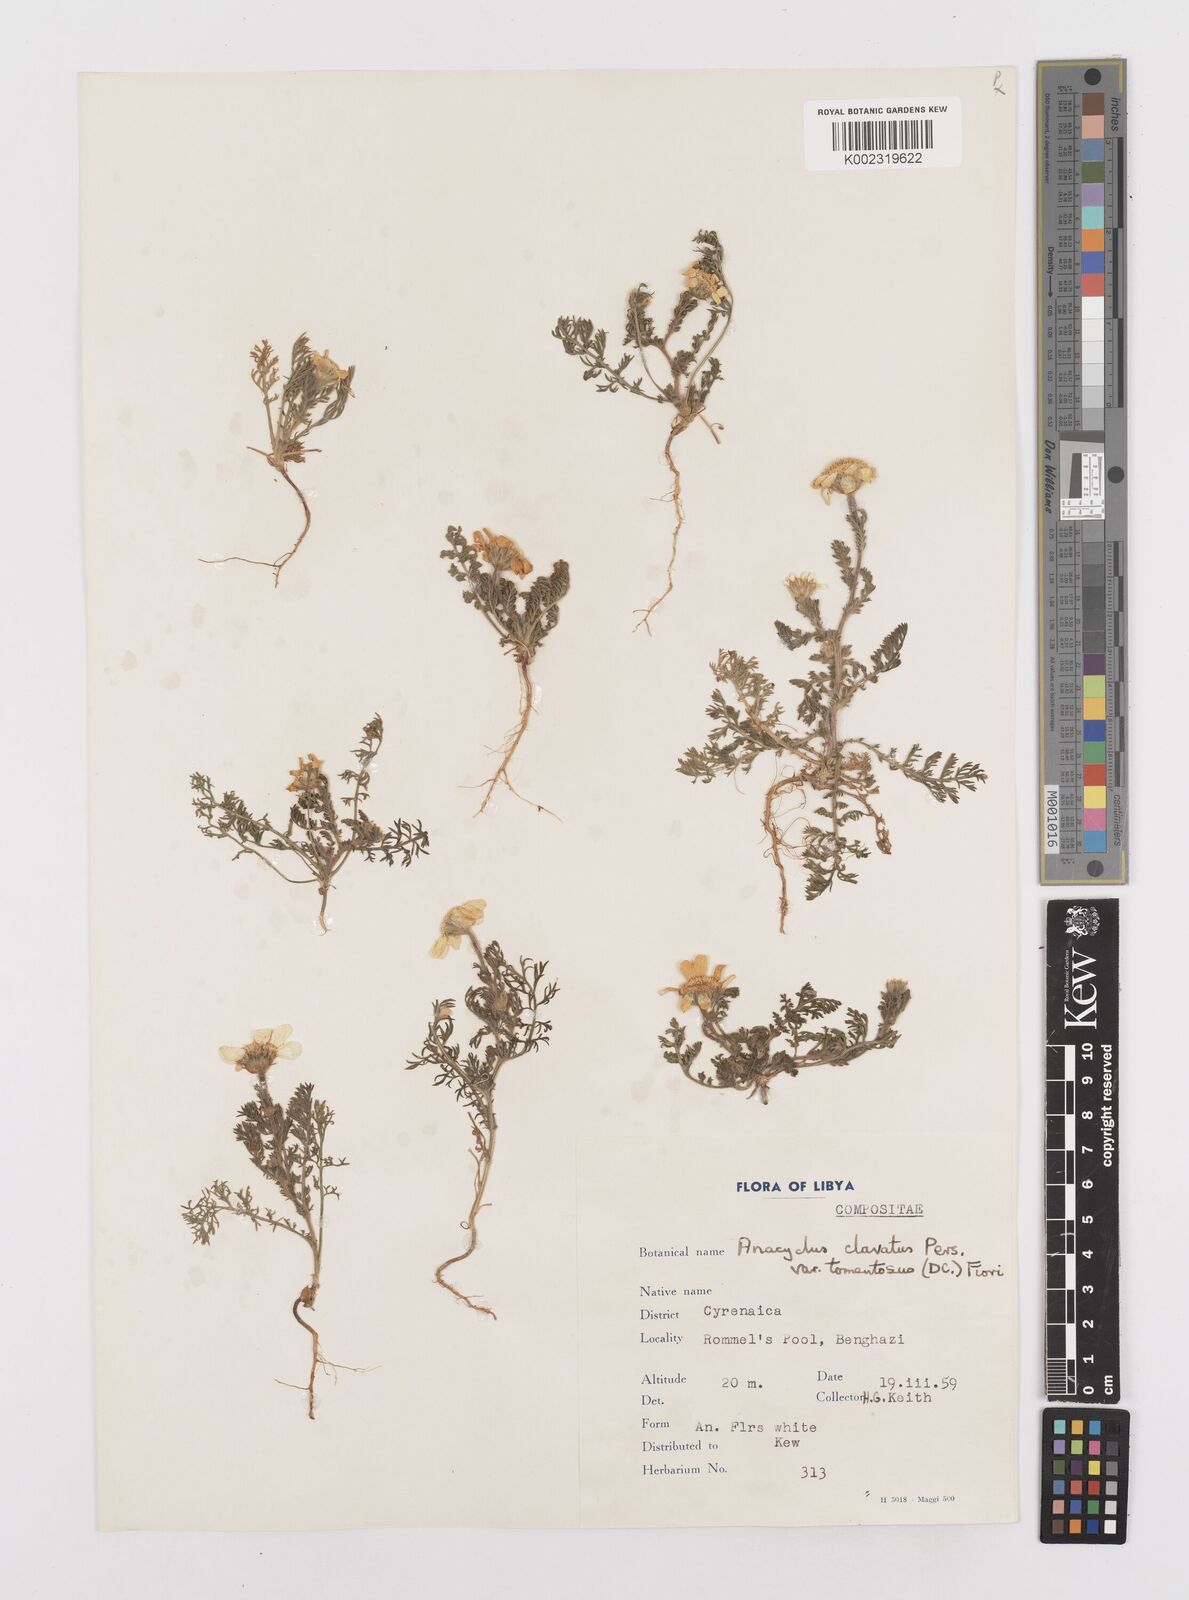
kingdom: Plantae
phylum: Tracheophyta
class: Magnoliopsida
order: Asterales
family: Asteraceae
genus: Anacyclus
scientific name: Anacyclus clavatus
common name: Whitebuttons
